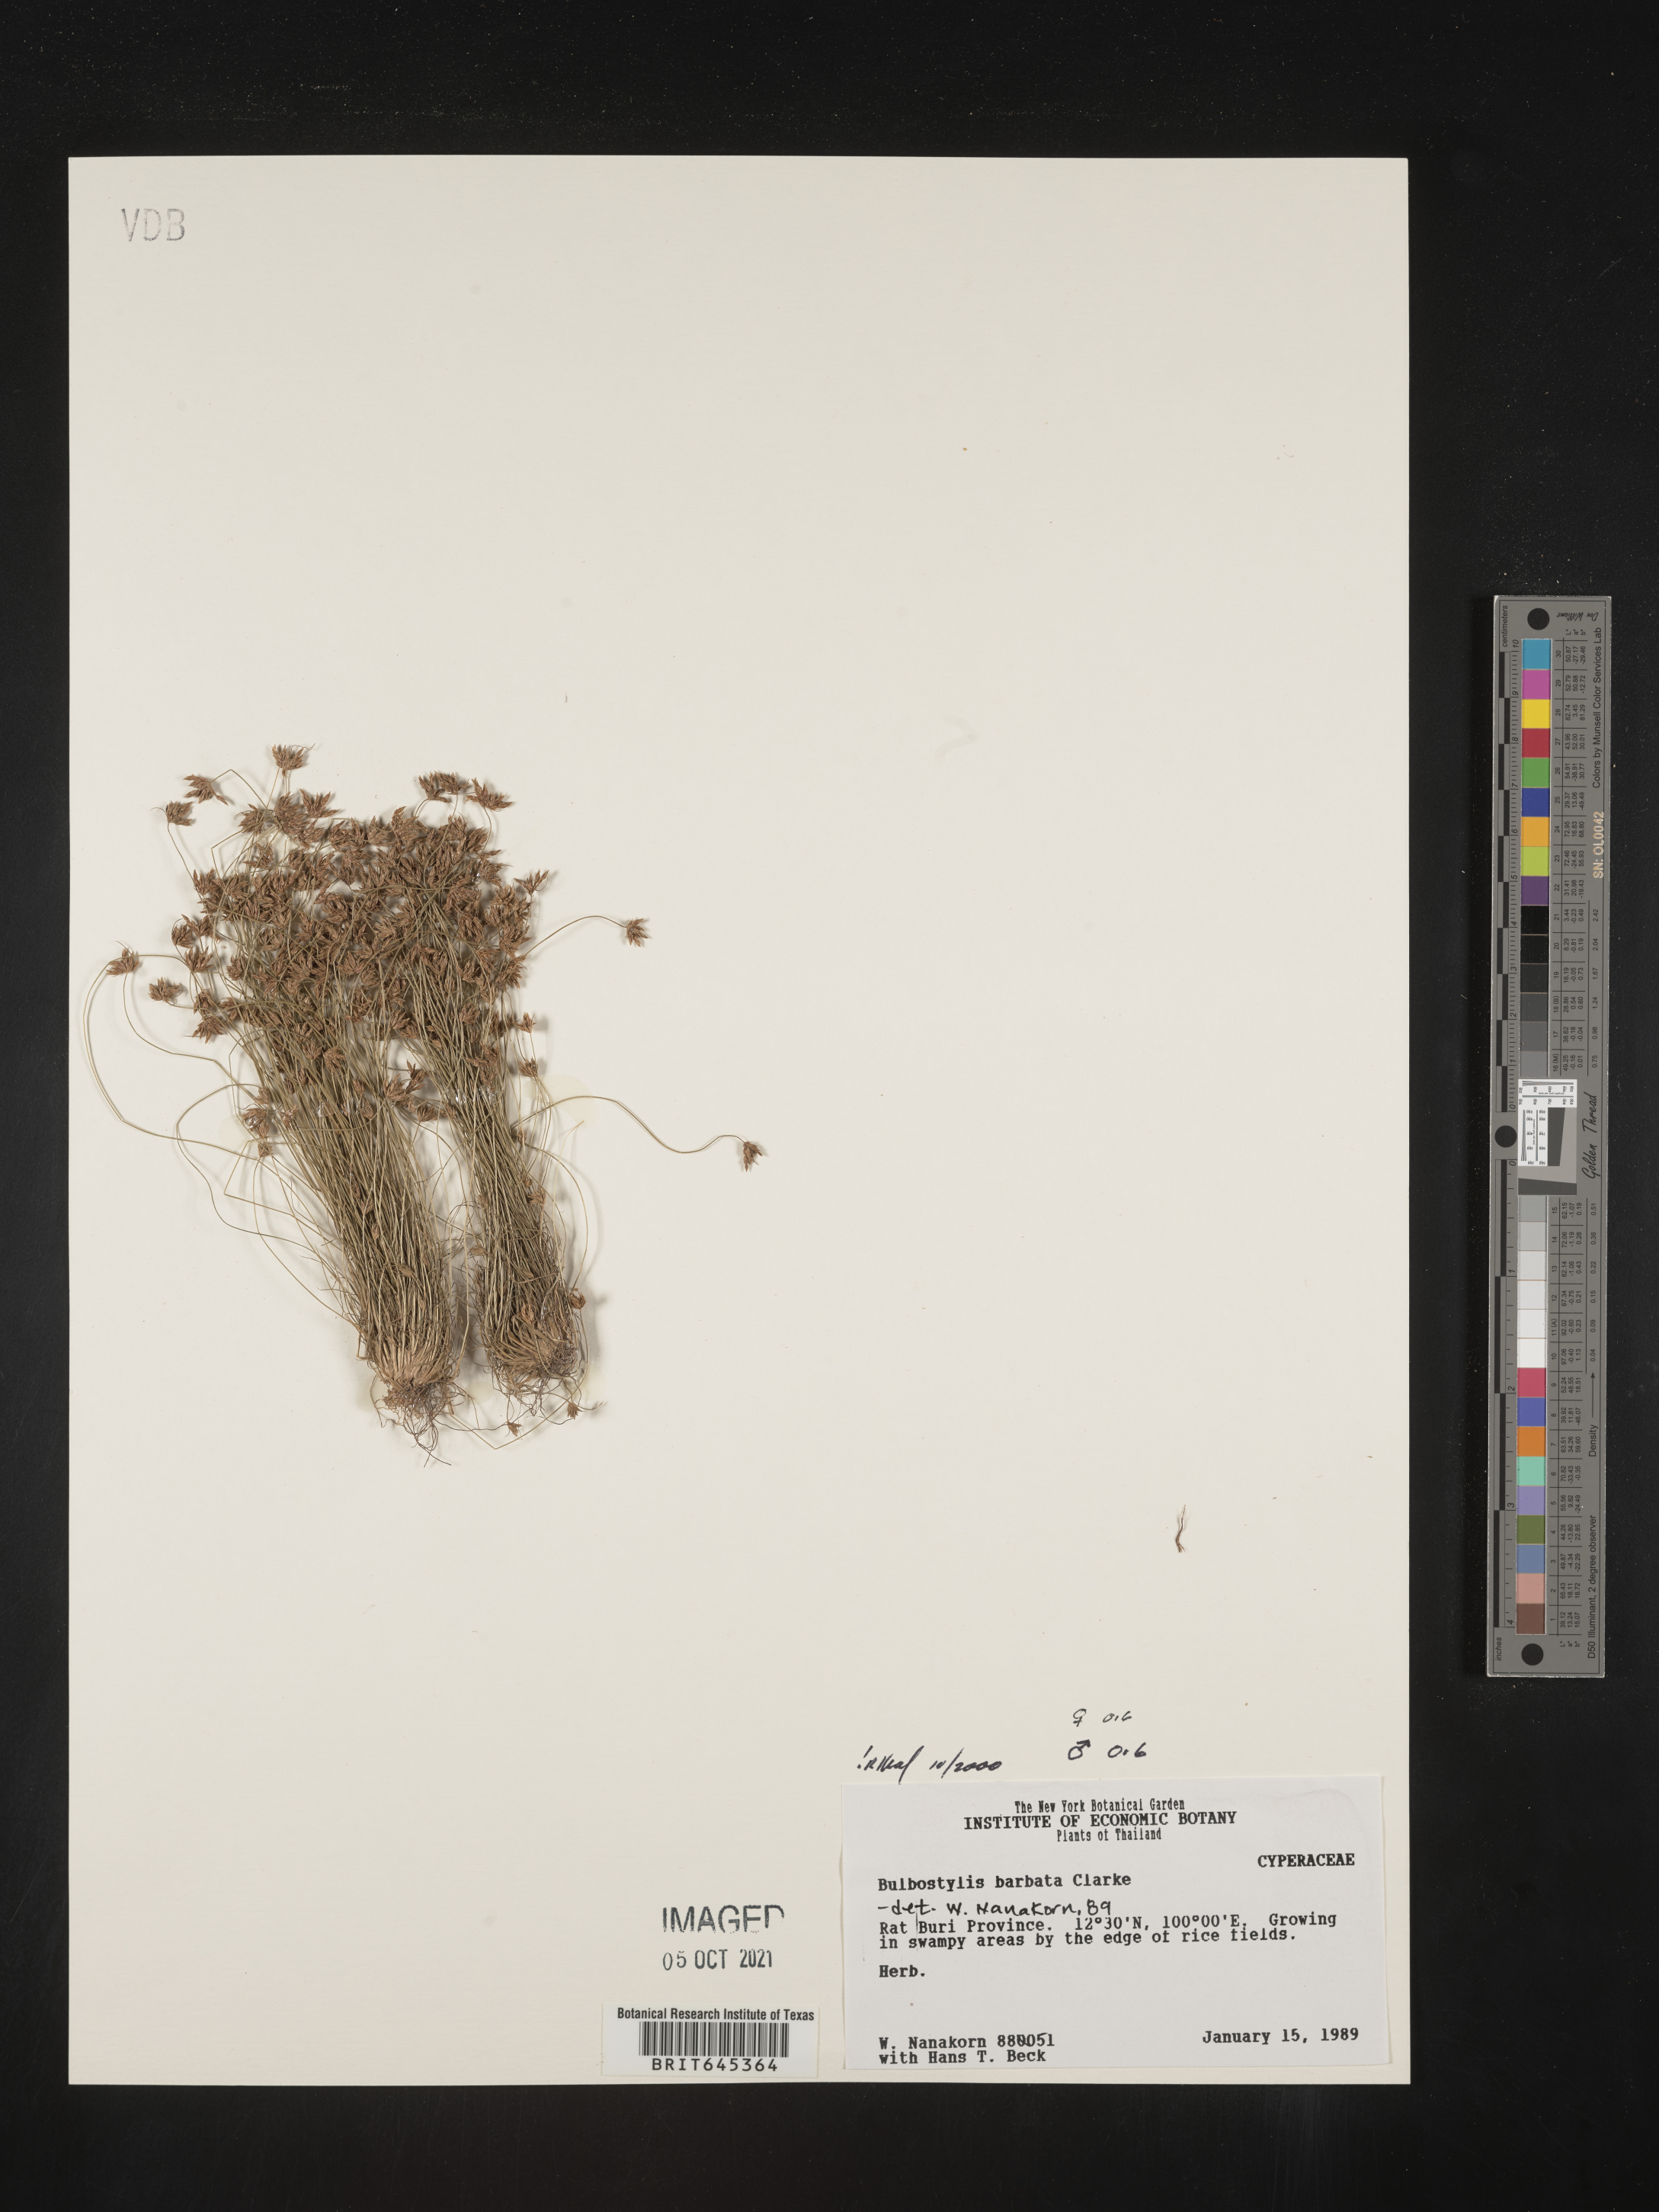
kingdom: Plantae
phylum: Tracheophyta
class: Liliopsida
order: Poales
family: Cyperaceae
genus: Bulbostylis
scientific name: Bulbostylis barbata
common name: Watergrass
